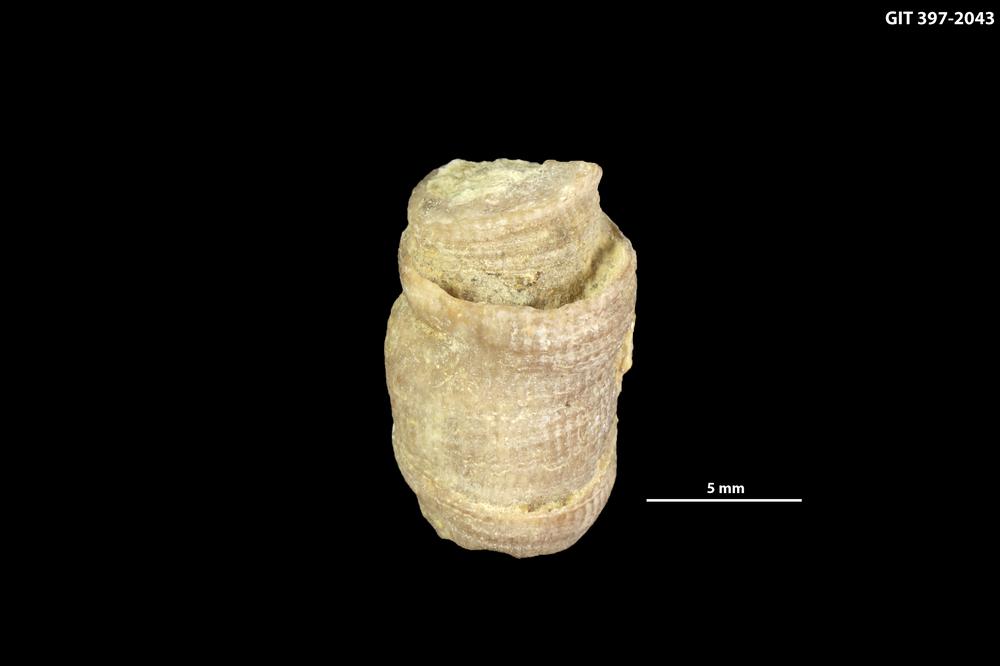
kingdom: Animalia
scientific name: Animalia
